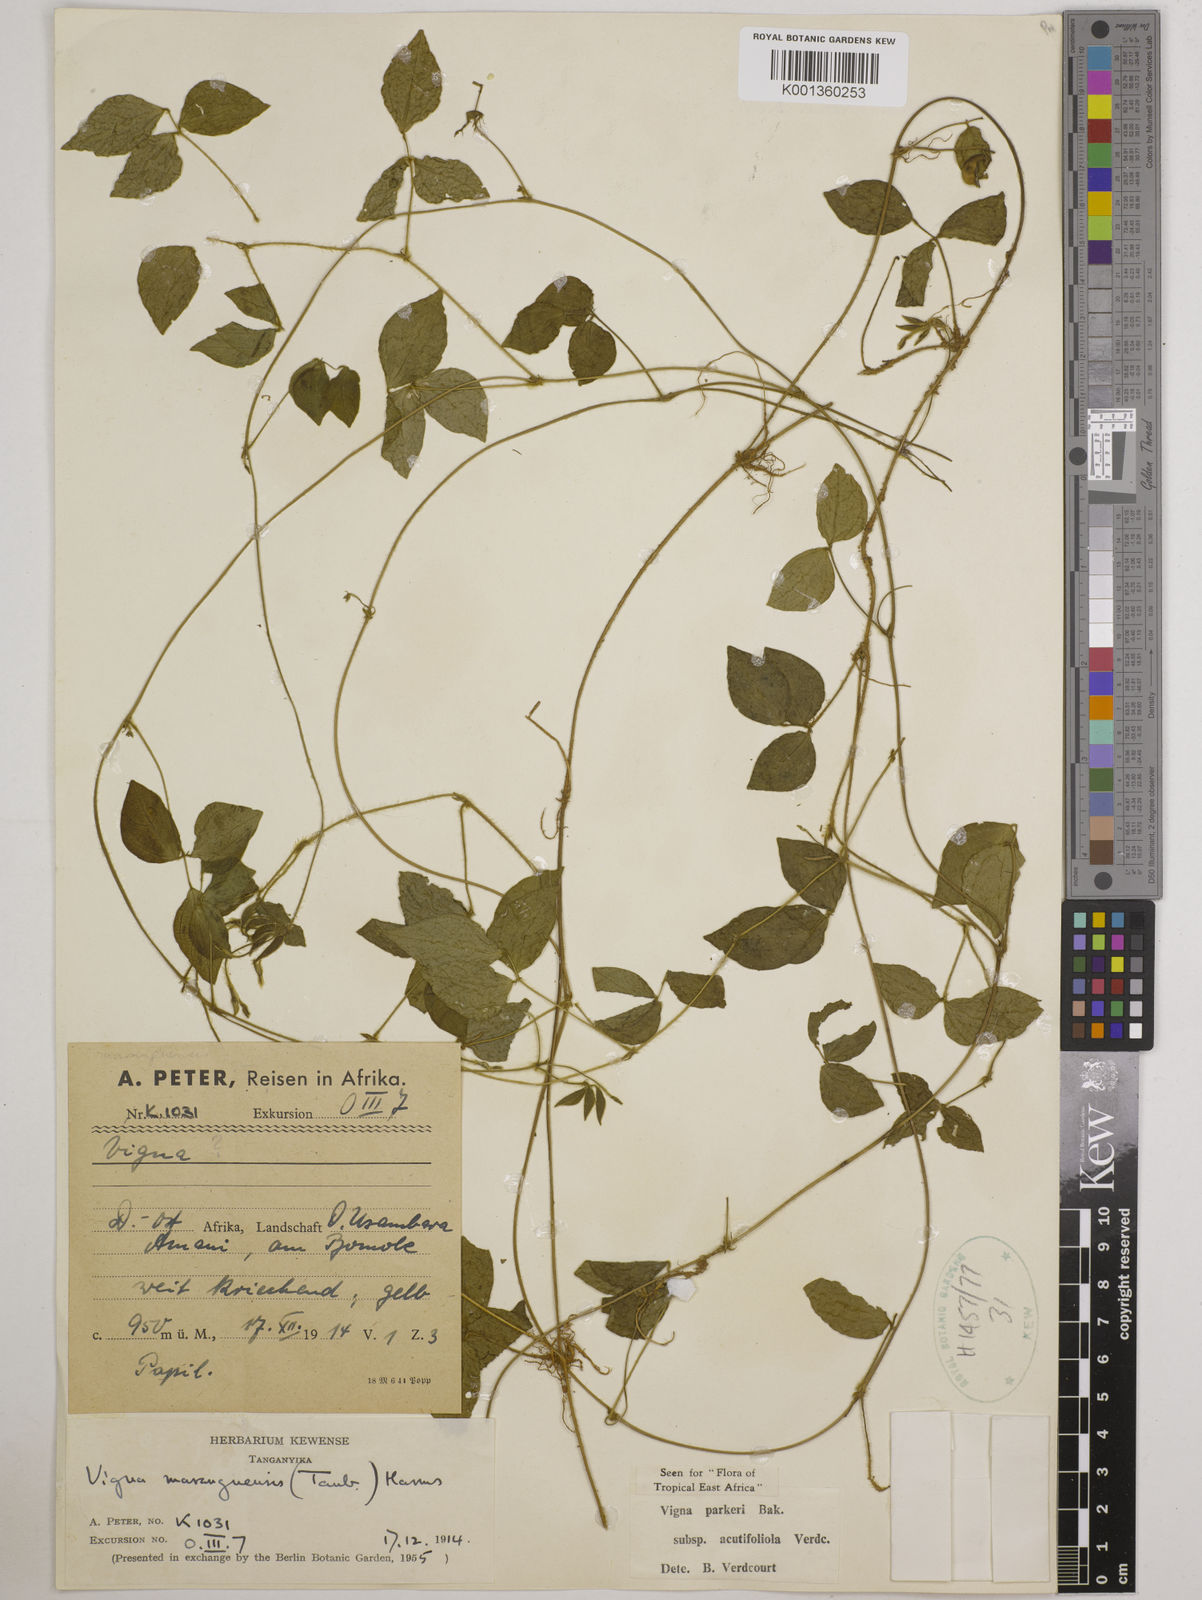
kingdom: Plantae
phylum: Tracheophyta
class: Magnoliopsida
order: Fabales
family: Fabaceae
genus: Vigna
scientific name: Vigna
